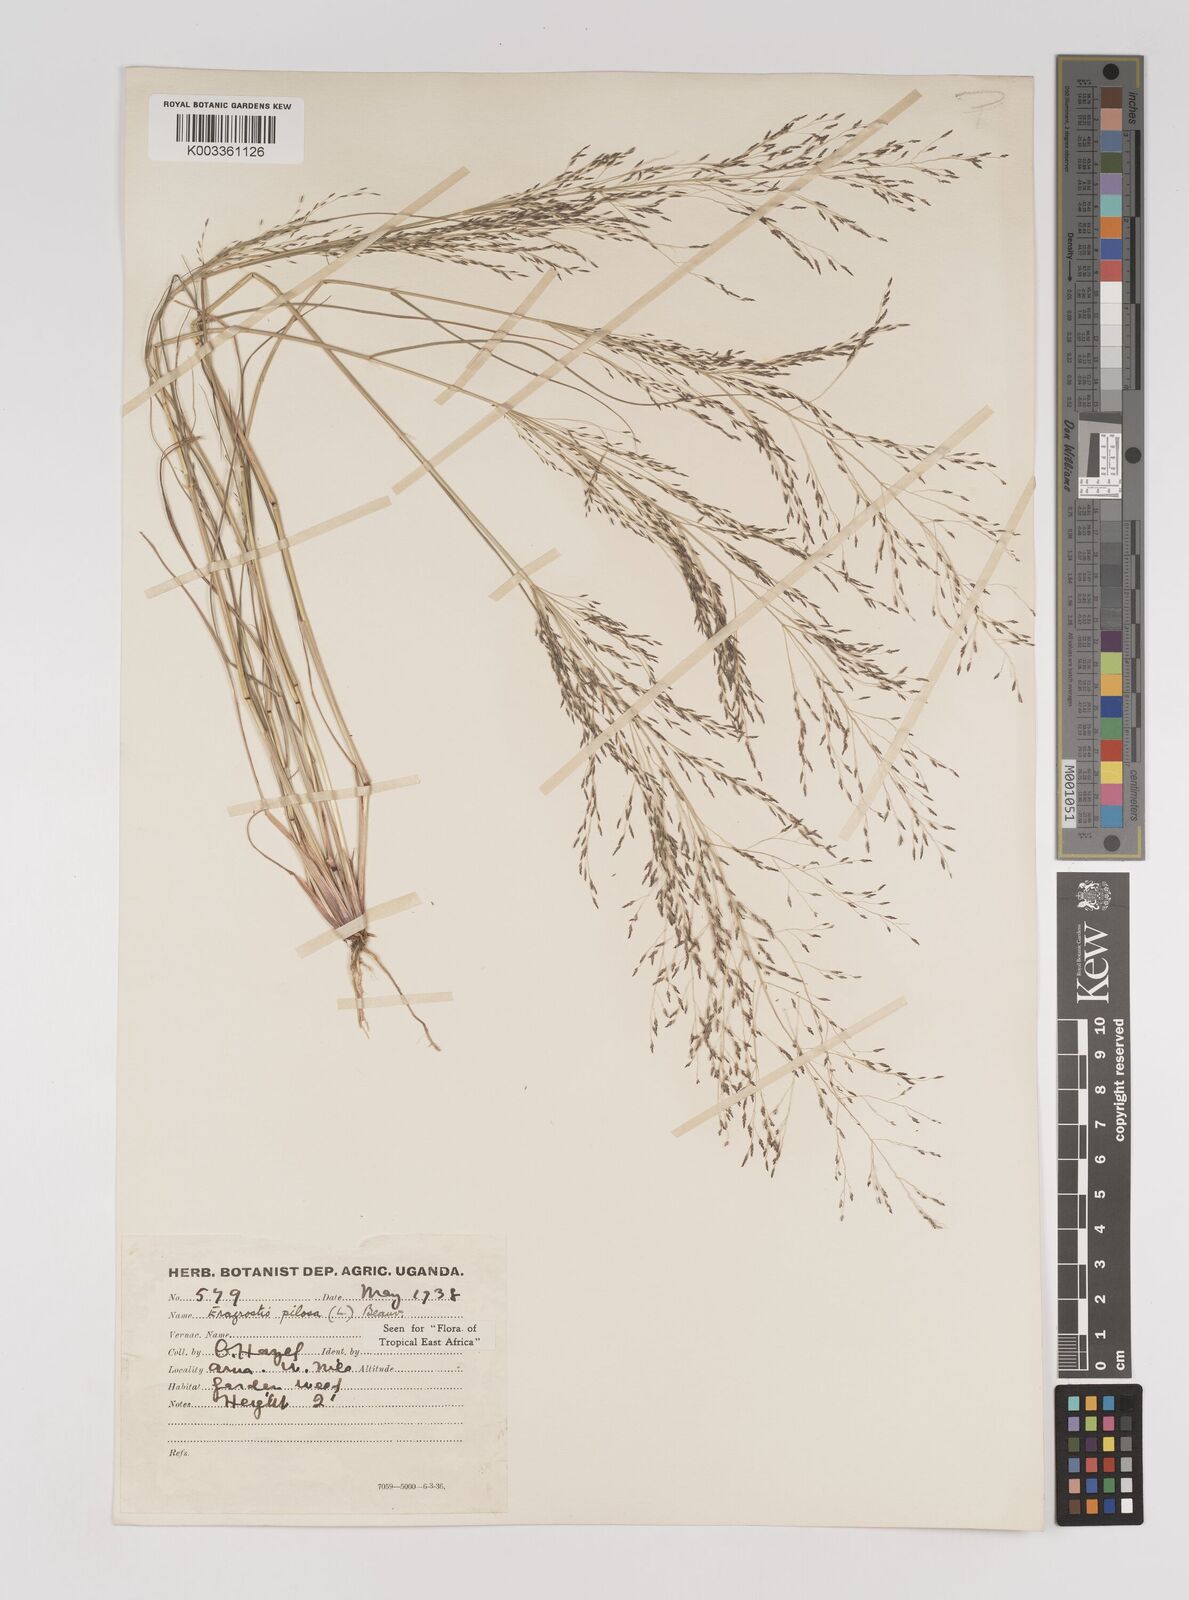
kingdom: Plantae
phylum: Tracheophyta
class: Liliopsida
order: Poales
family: Poaceae
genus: Eragrostis
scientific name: Eragrostis pilosa
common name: Indian lovegrass
